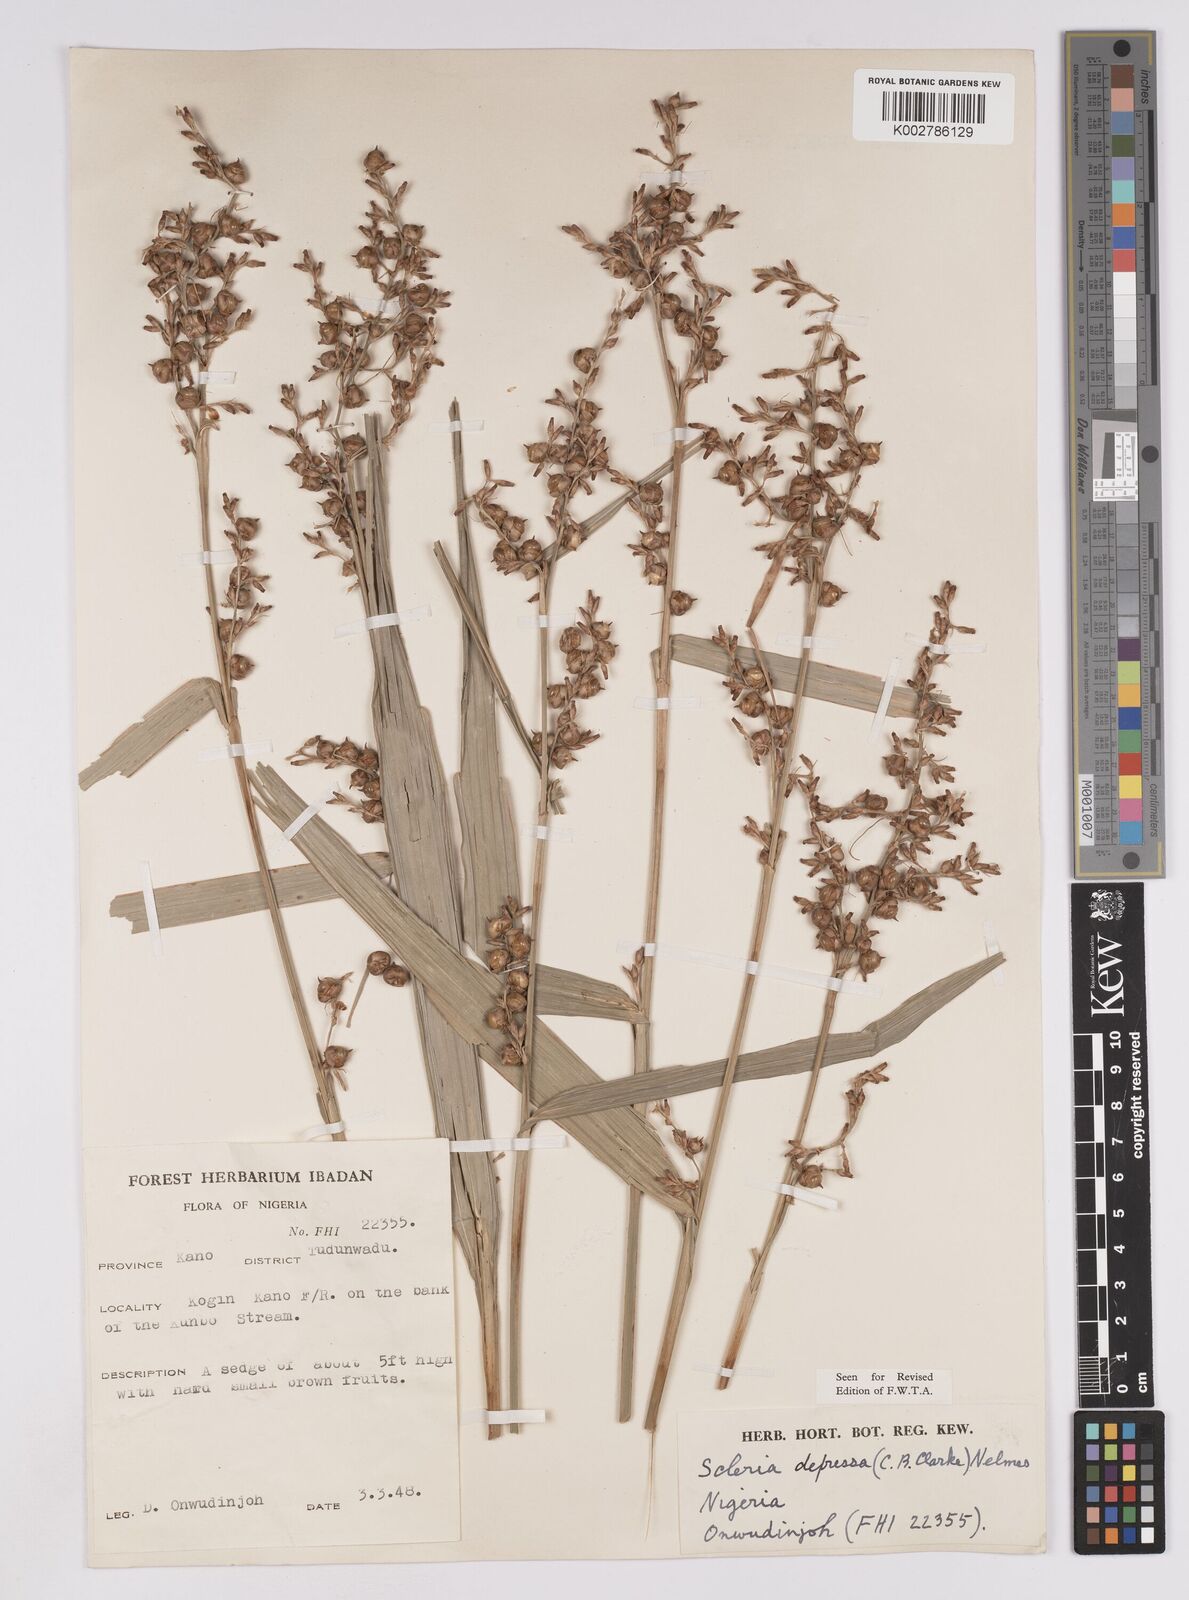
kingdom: Plantae
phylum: Tracheophyta
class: Liliopsida
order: Poales
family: Cyperaceae
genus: Scleria
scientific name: Scleria depressa
